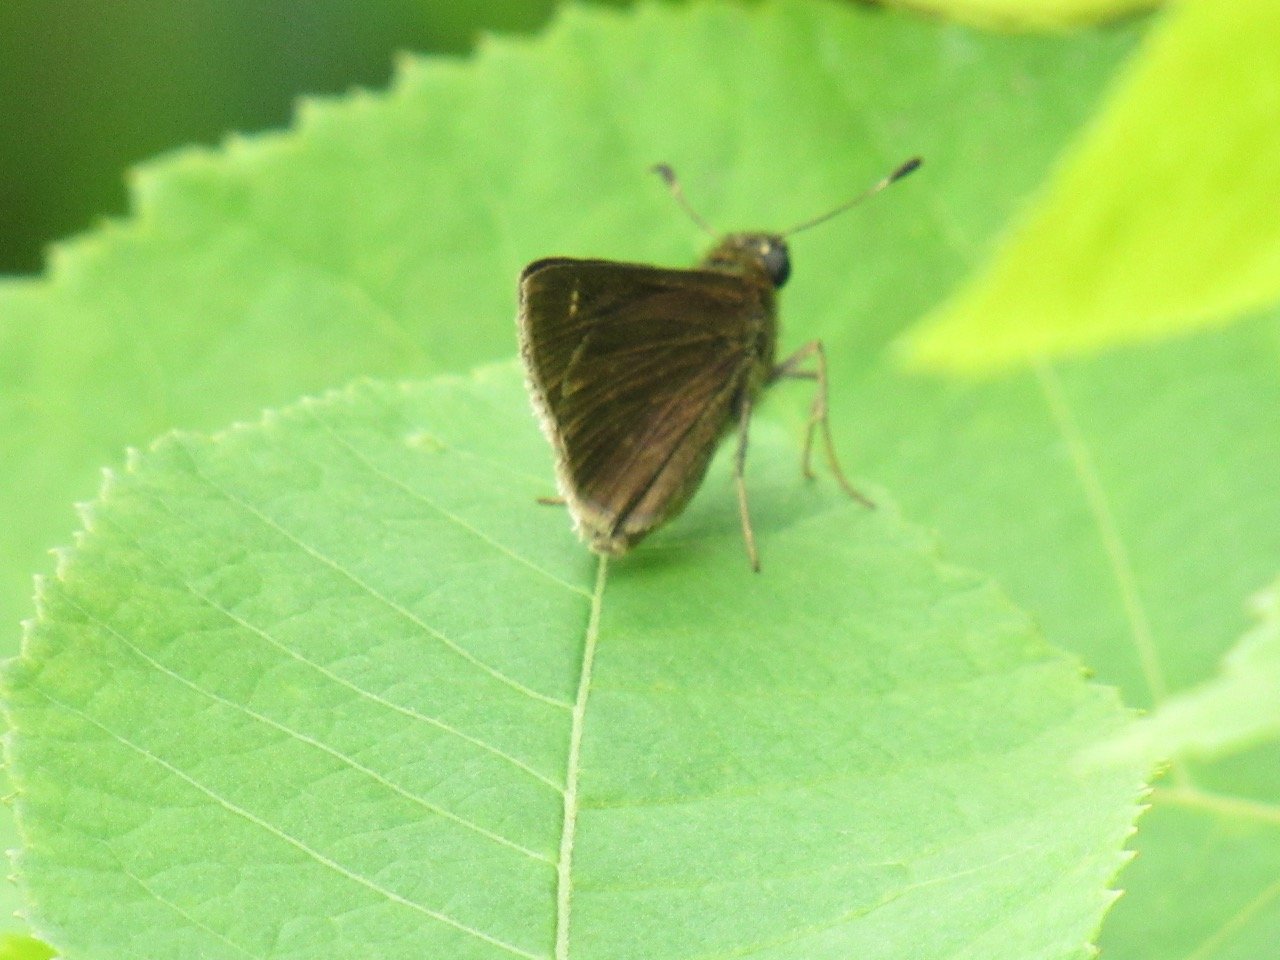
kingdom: Animalia
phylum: Arthropoda
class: Insecta
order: Lepidoptera
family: Hesperiidae
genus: Vernia
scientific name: Vernia verna
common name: Little Glassywing
